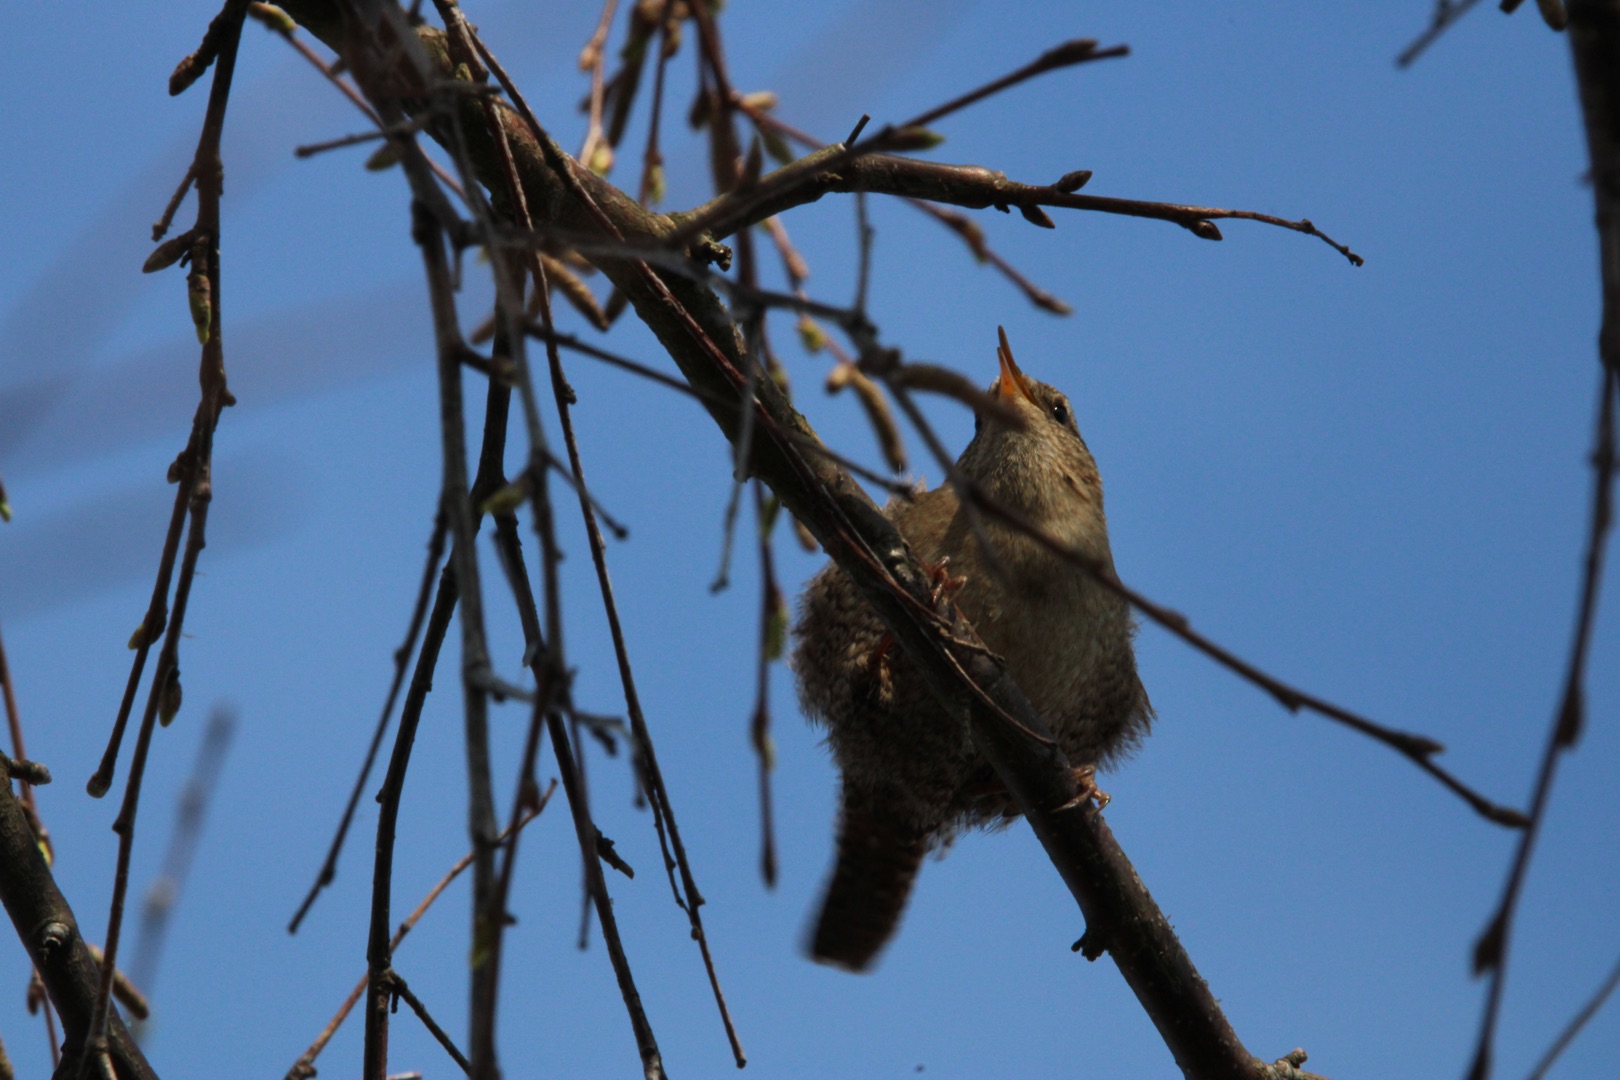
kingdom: Animalia
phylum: Chordata
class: Aves
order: Passeriformes
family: Troglodytidae
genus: Troglodytes
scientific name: Troglodytes troglodytes
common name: Gærdesmutte
